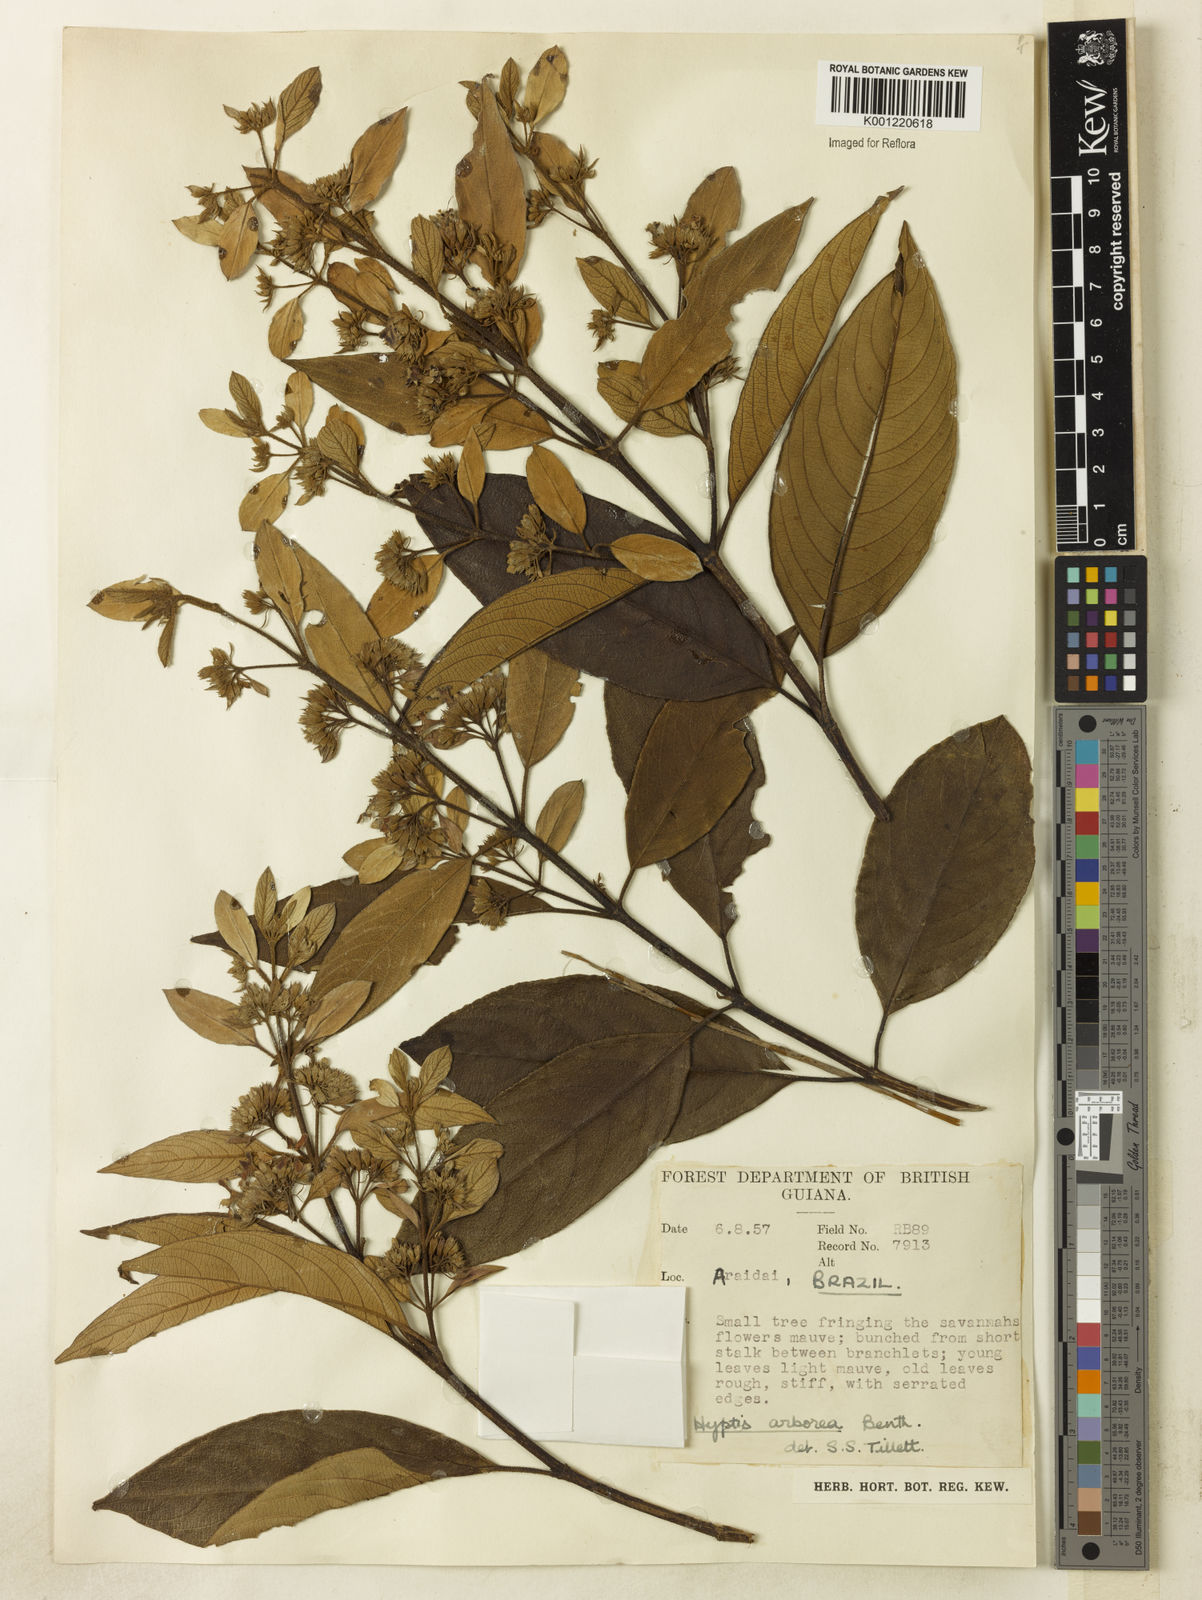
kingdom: Plantae
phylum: Tracheophyta
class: Magnoliopsida
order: Lamiales
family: Lamiaceae
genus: Hyptidendron
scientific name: Hyptidendron arboreum
